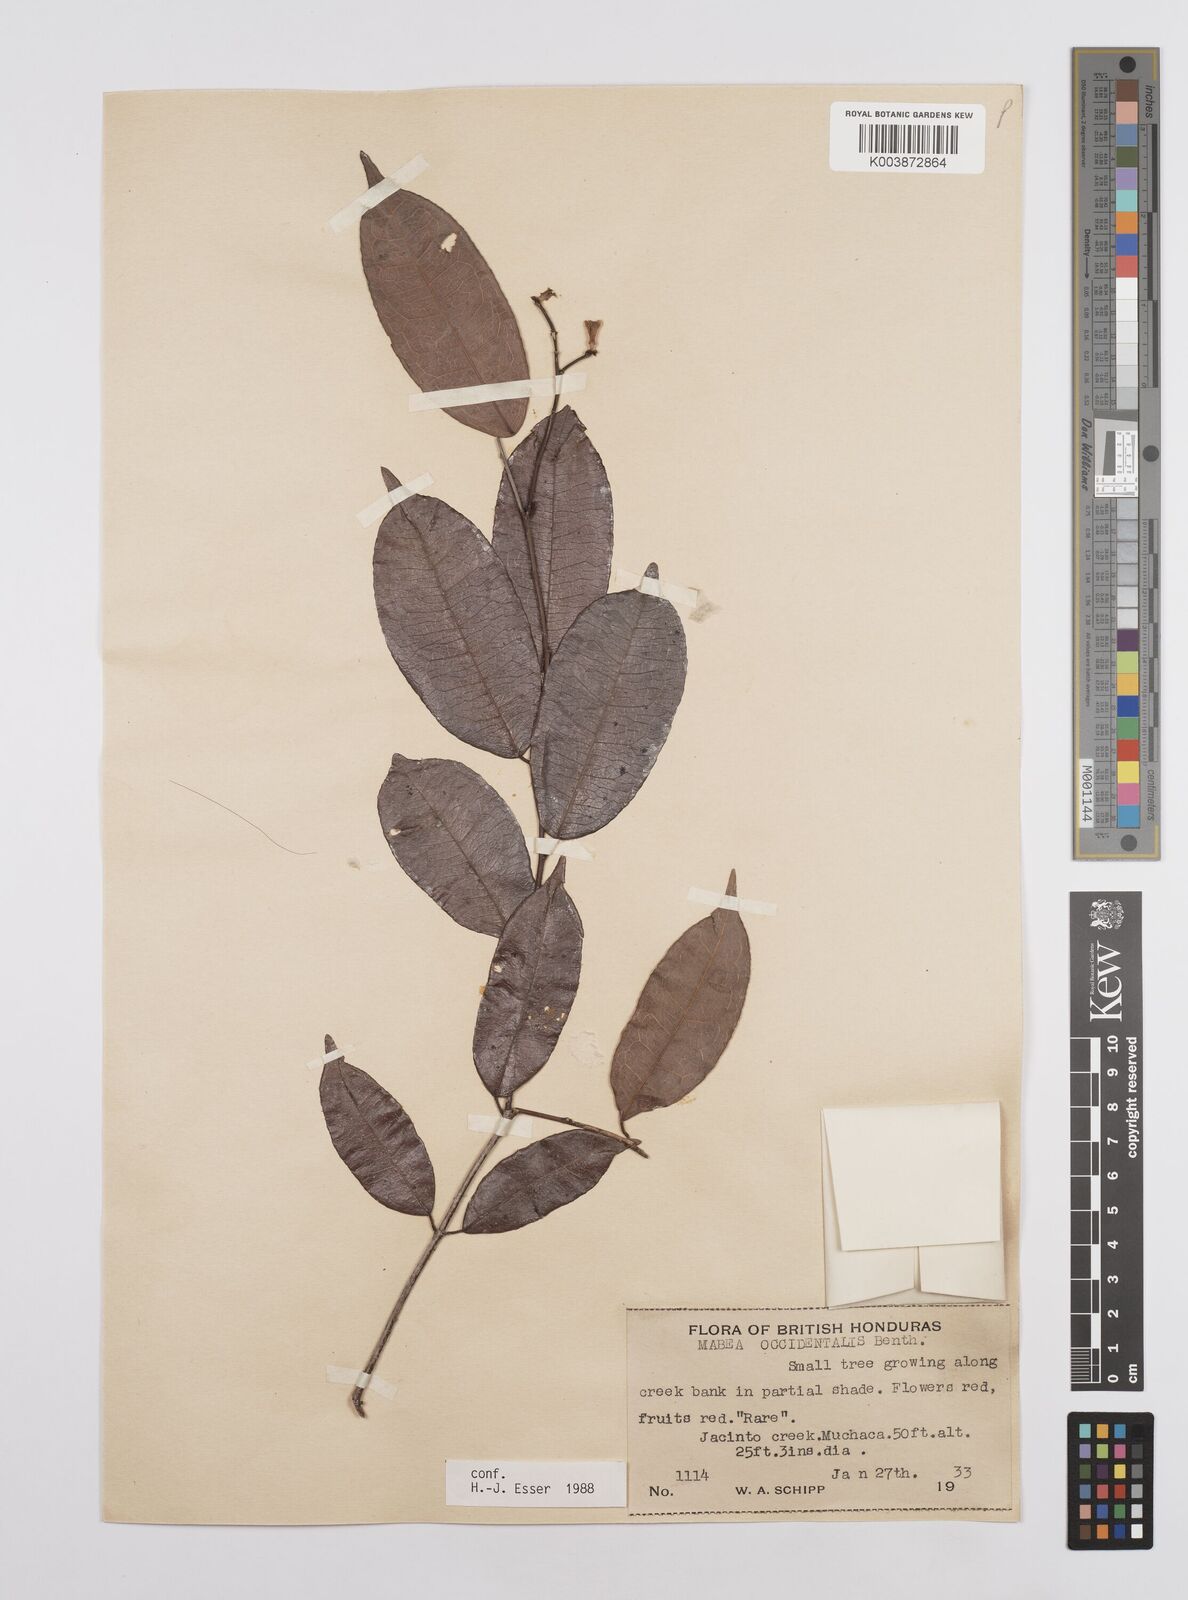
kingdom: Plantae
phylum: Tracheophyta
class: Magnoliopsida
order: Malpighiales
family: Euphorbiaceae
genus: Mabea
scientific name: Mabea occidentalis
